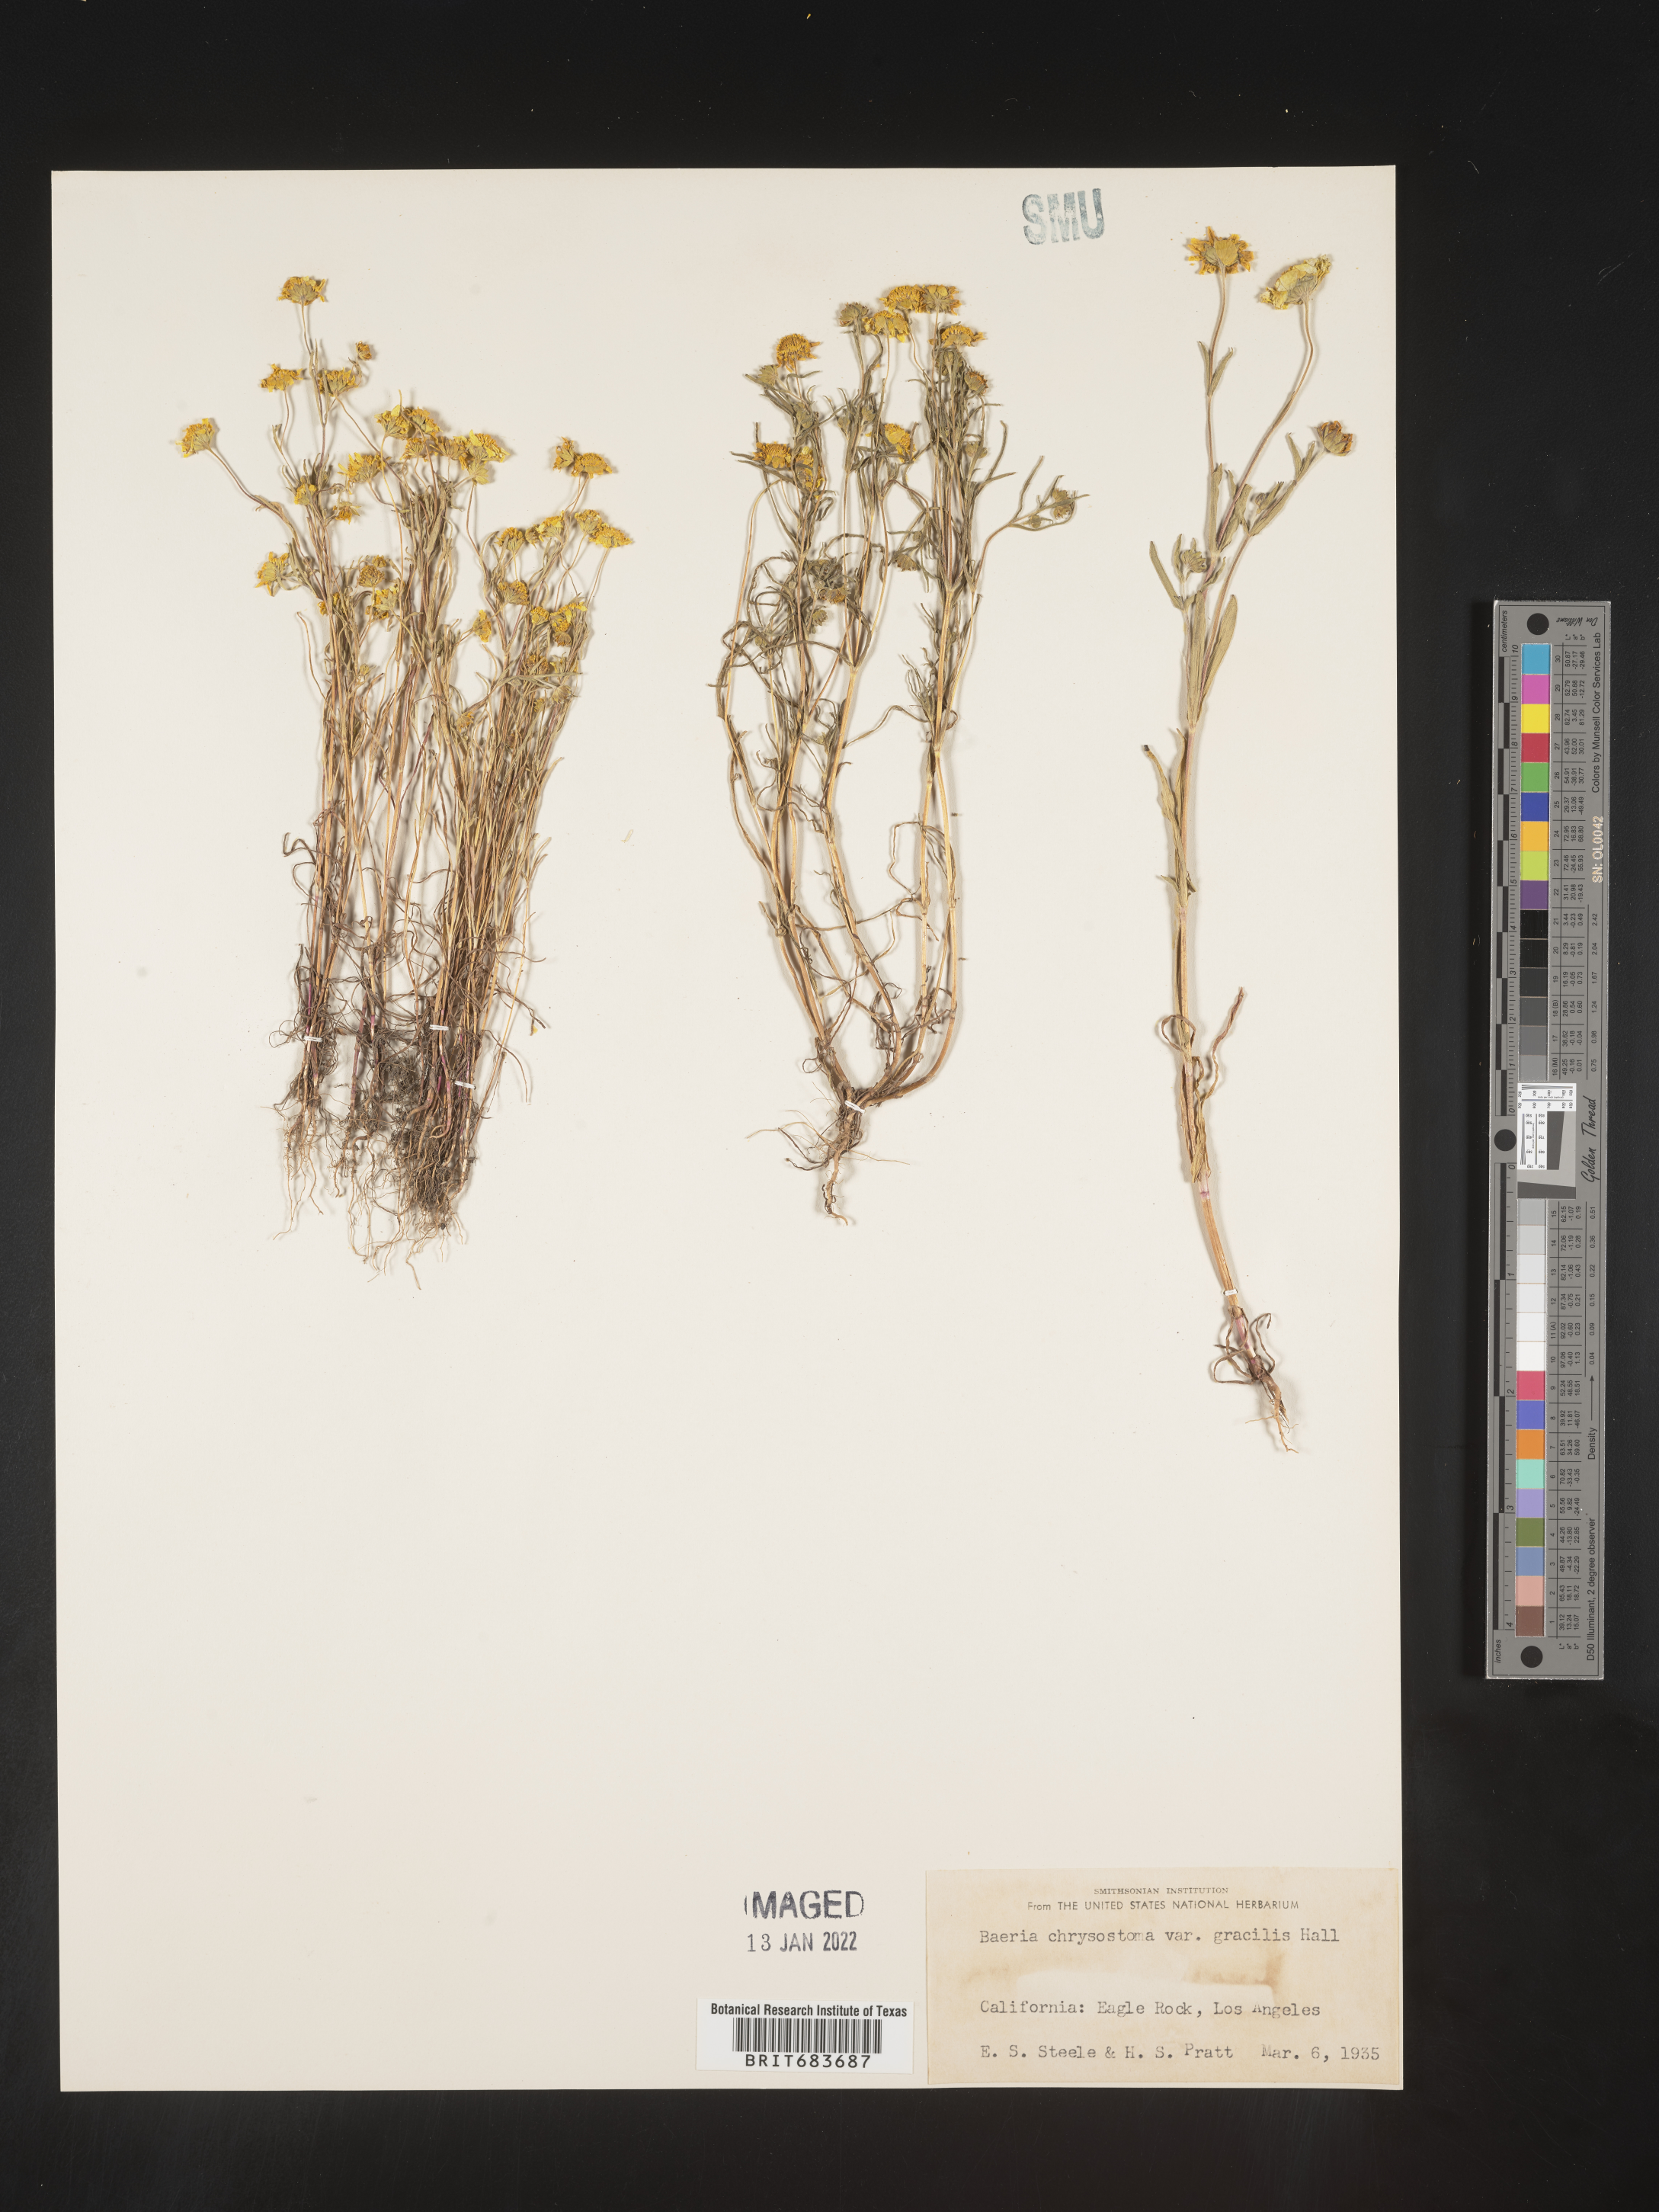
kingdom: Plantae
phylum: Tracheophyta
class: Magnoliopsida
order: Asterales
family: Asteraceae
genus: Lasthenia
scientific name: Lasthenia
